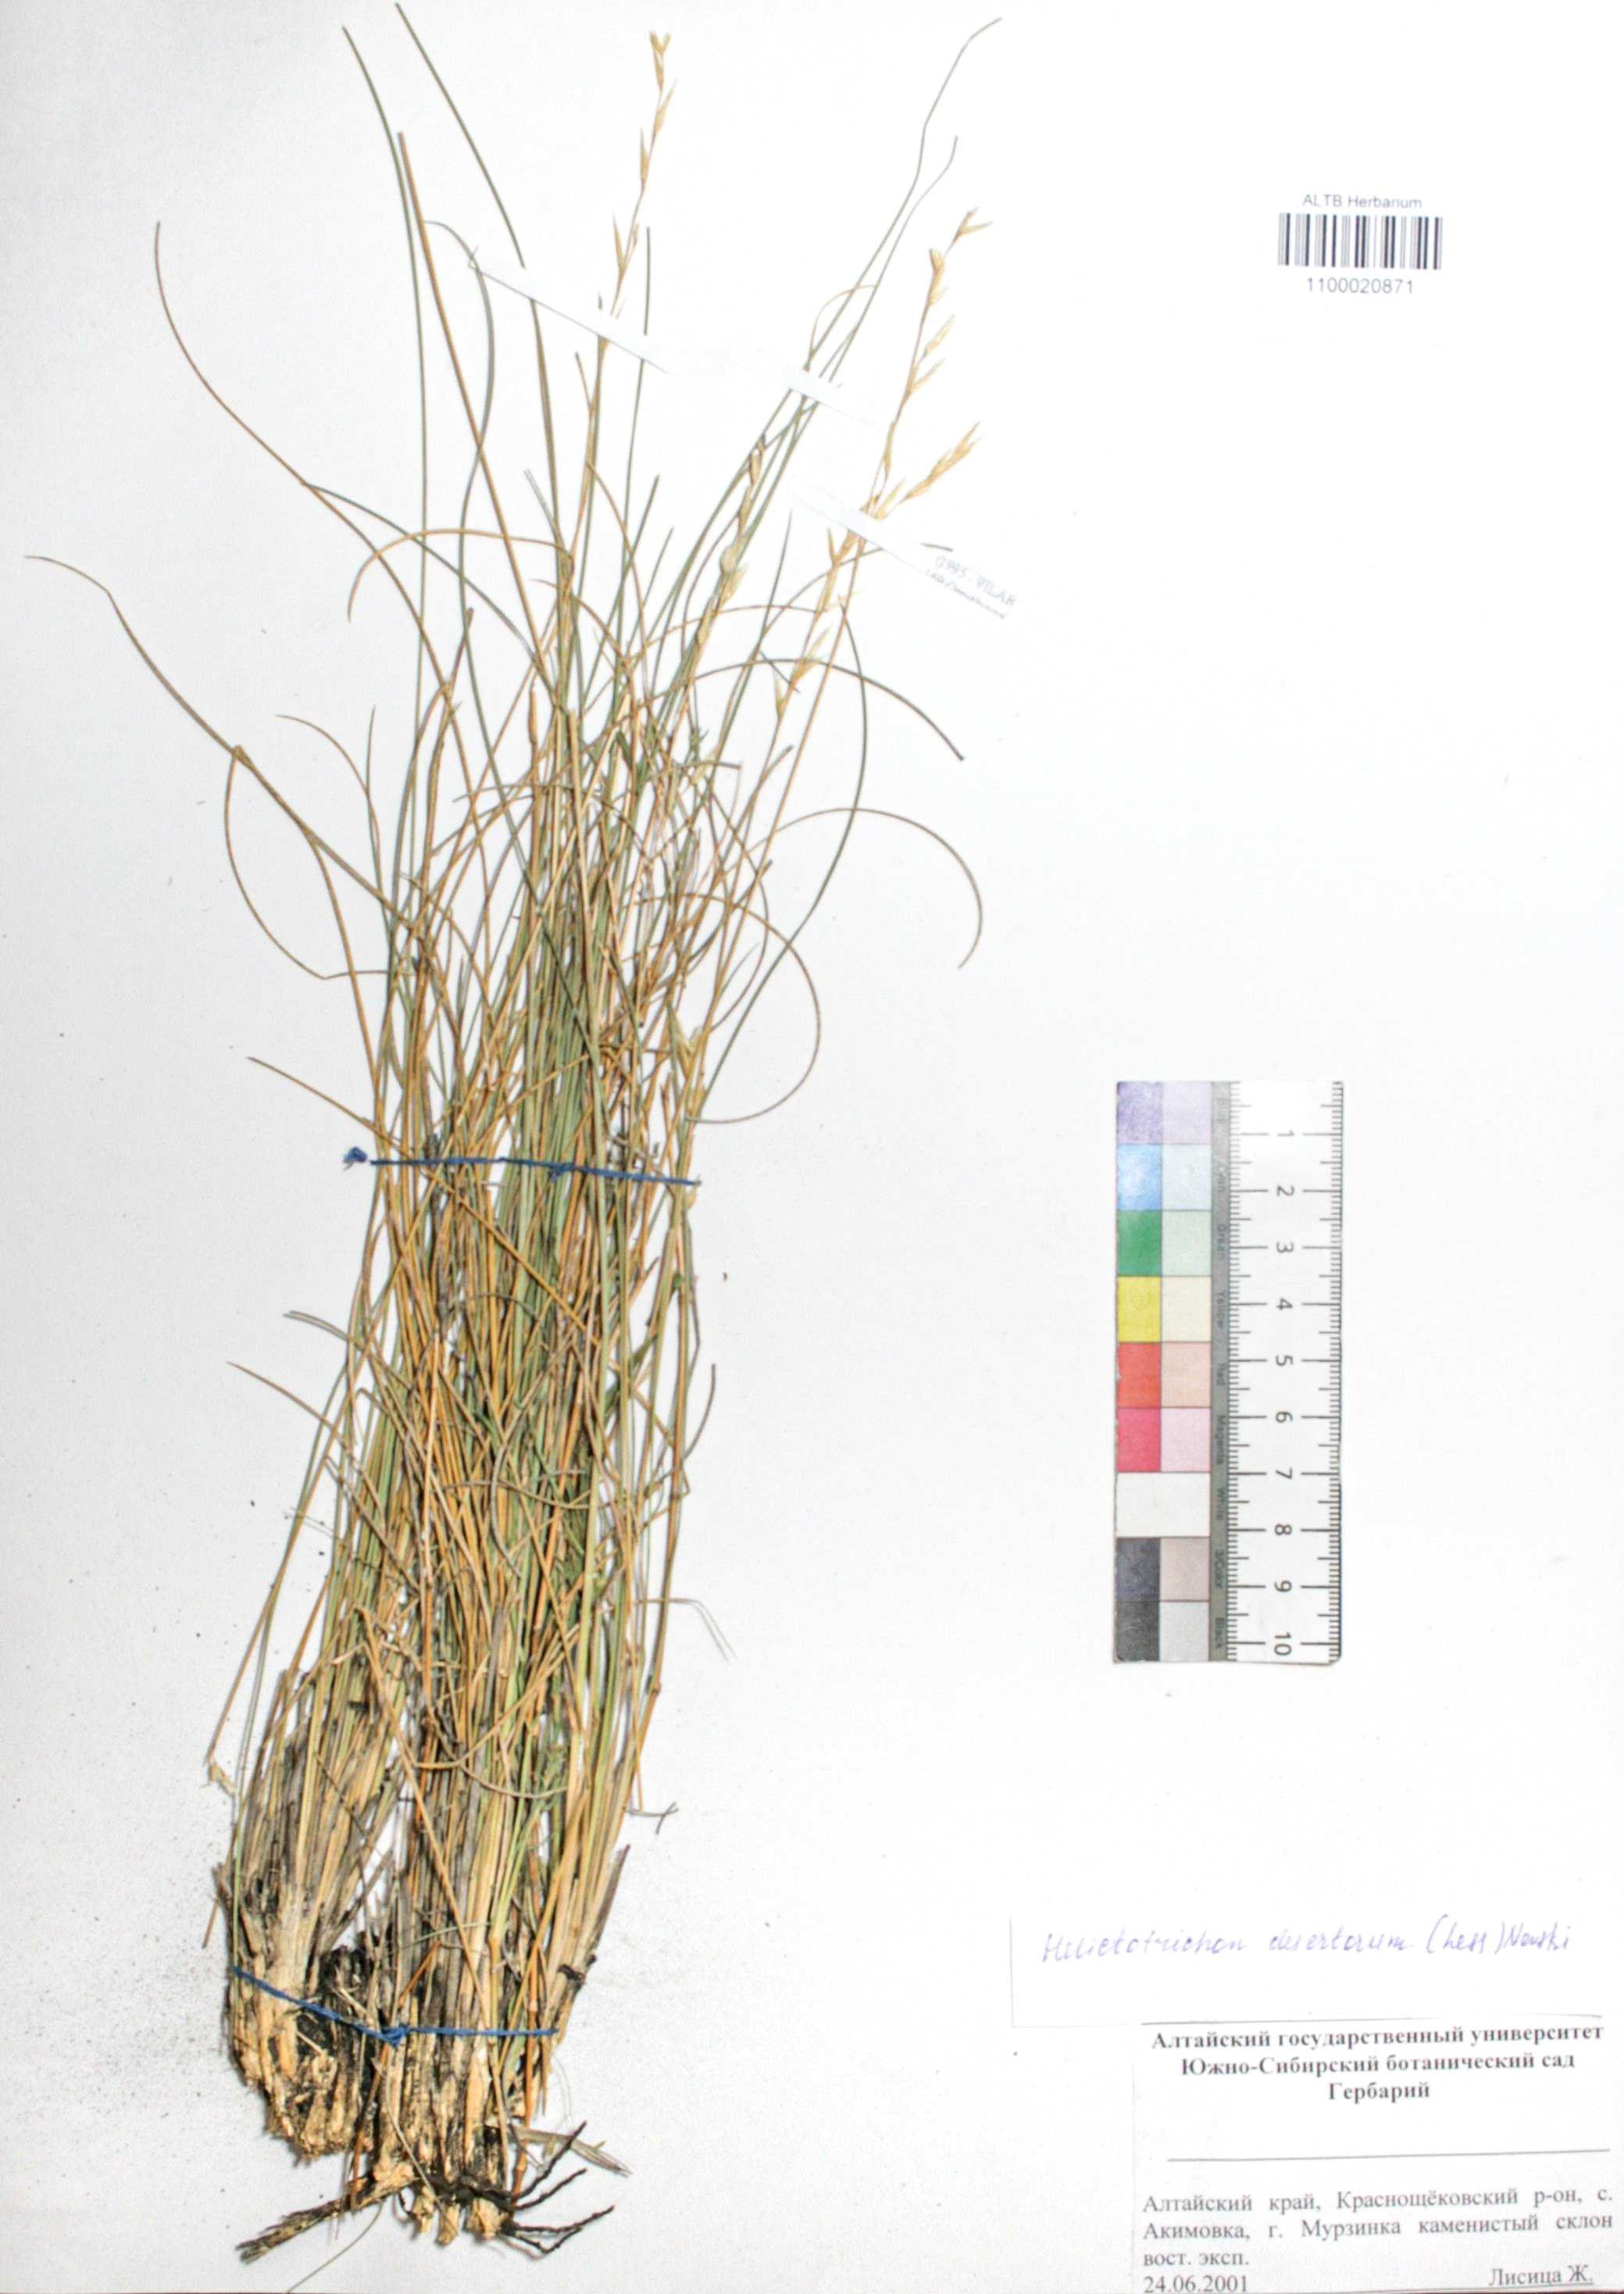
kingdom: Plantae
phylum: Tracheophyta
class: Liliopsida
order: Poales
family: Poaceae
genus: Helictotrichon
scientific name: Helictotrichon desertorum
